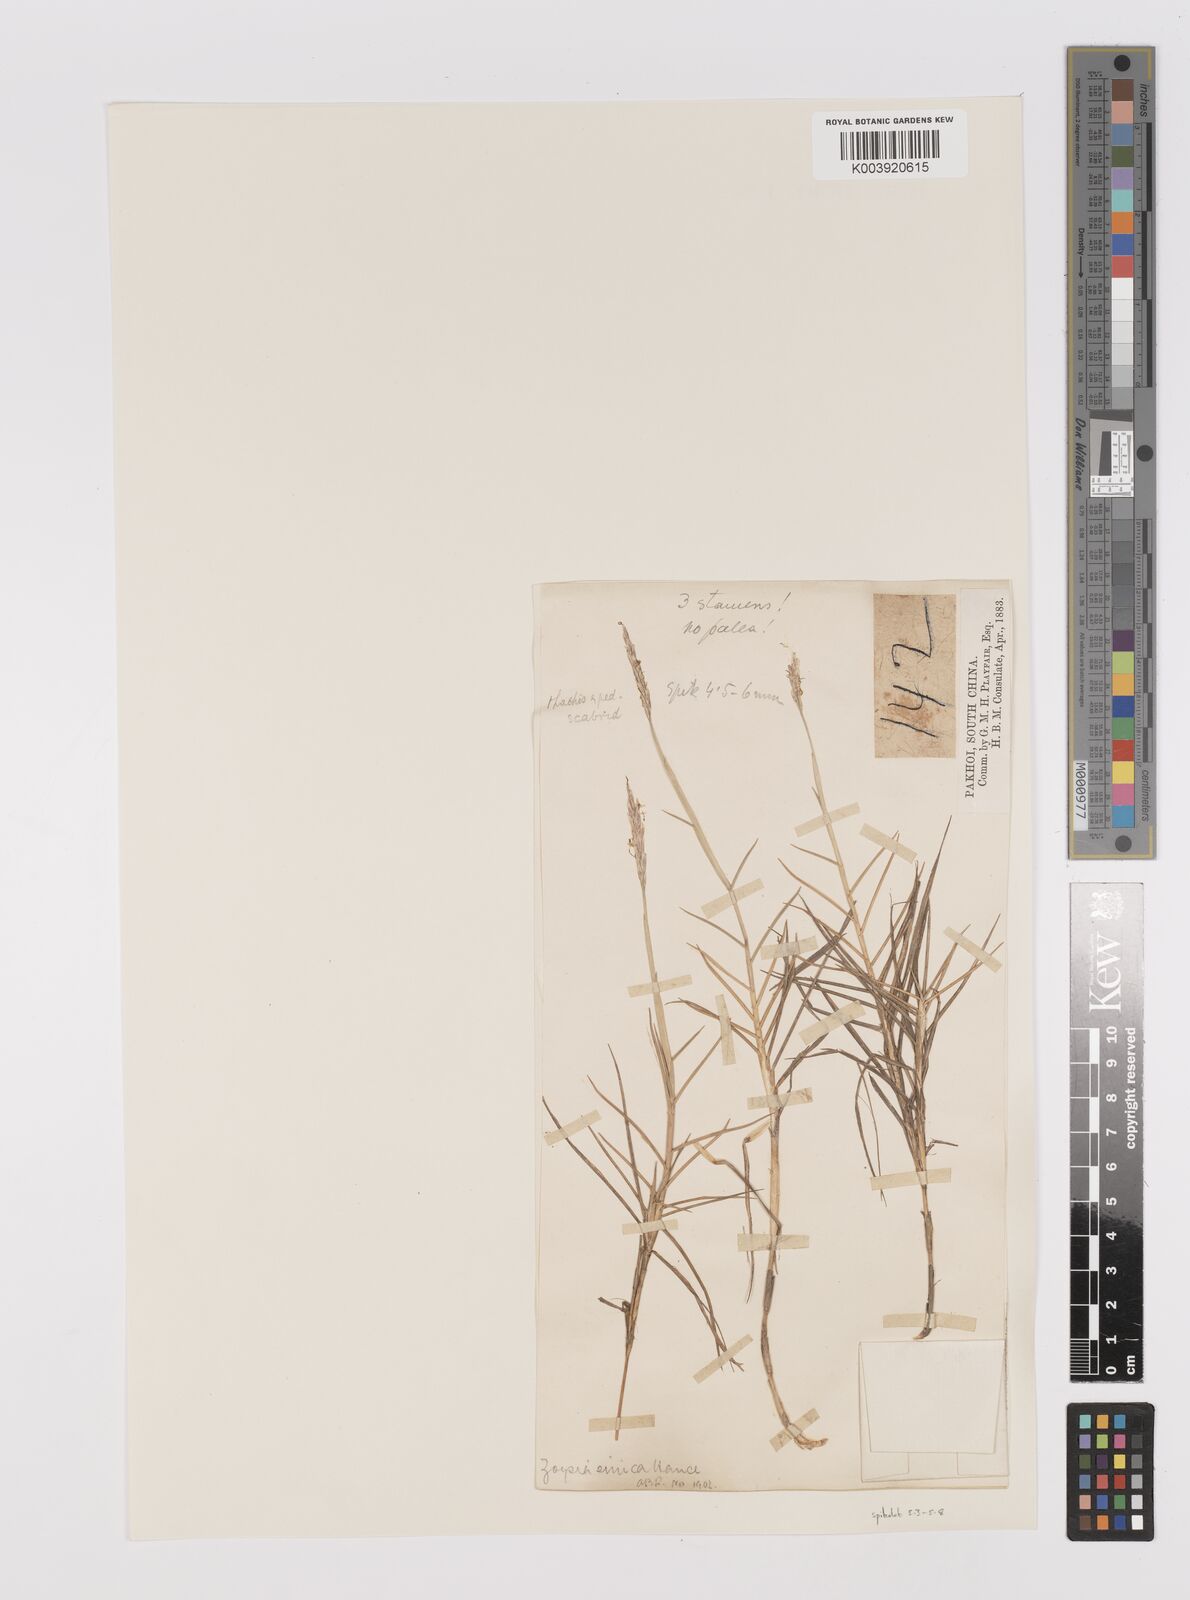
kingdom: Plantae
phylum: Tracheophyta
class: Liliopsida
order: Poales
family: Poaceae
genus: Zoysia
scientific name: Zoysia sinica
